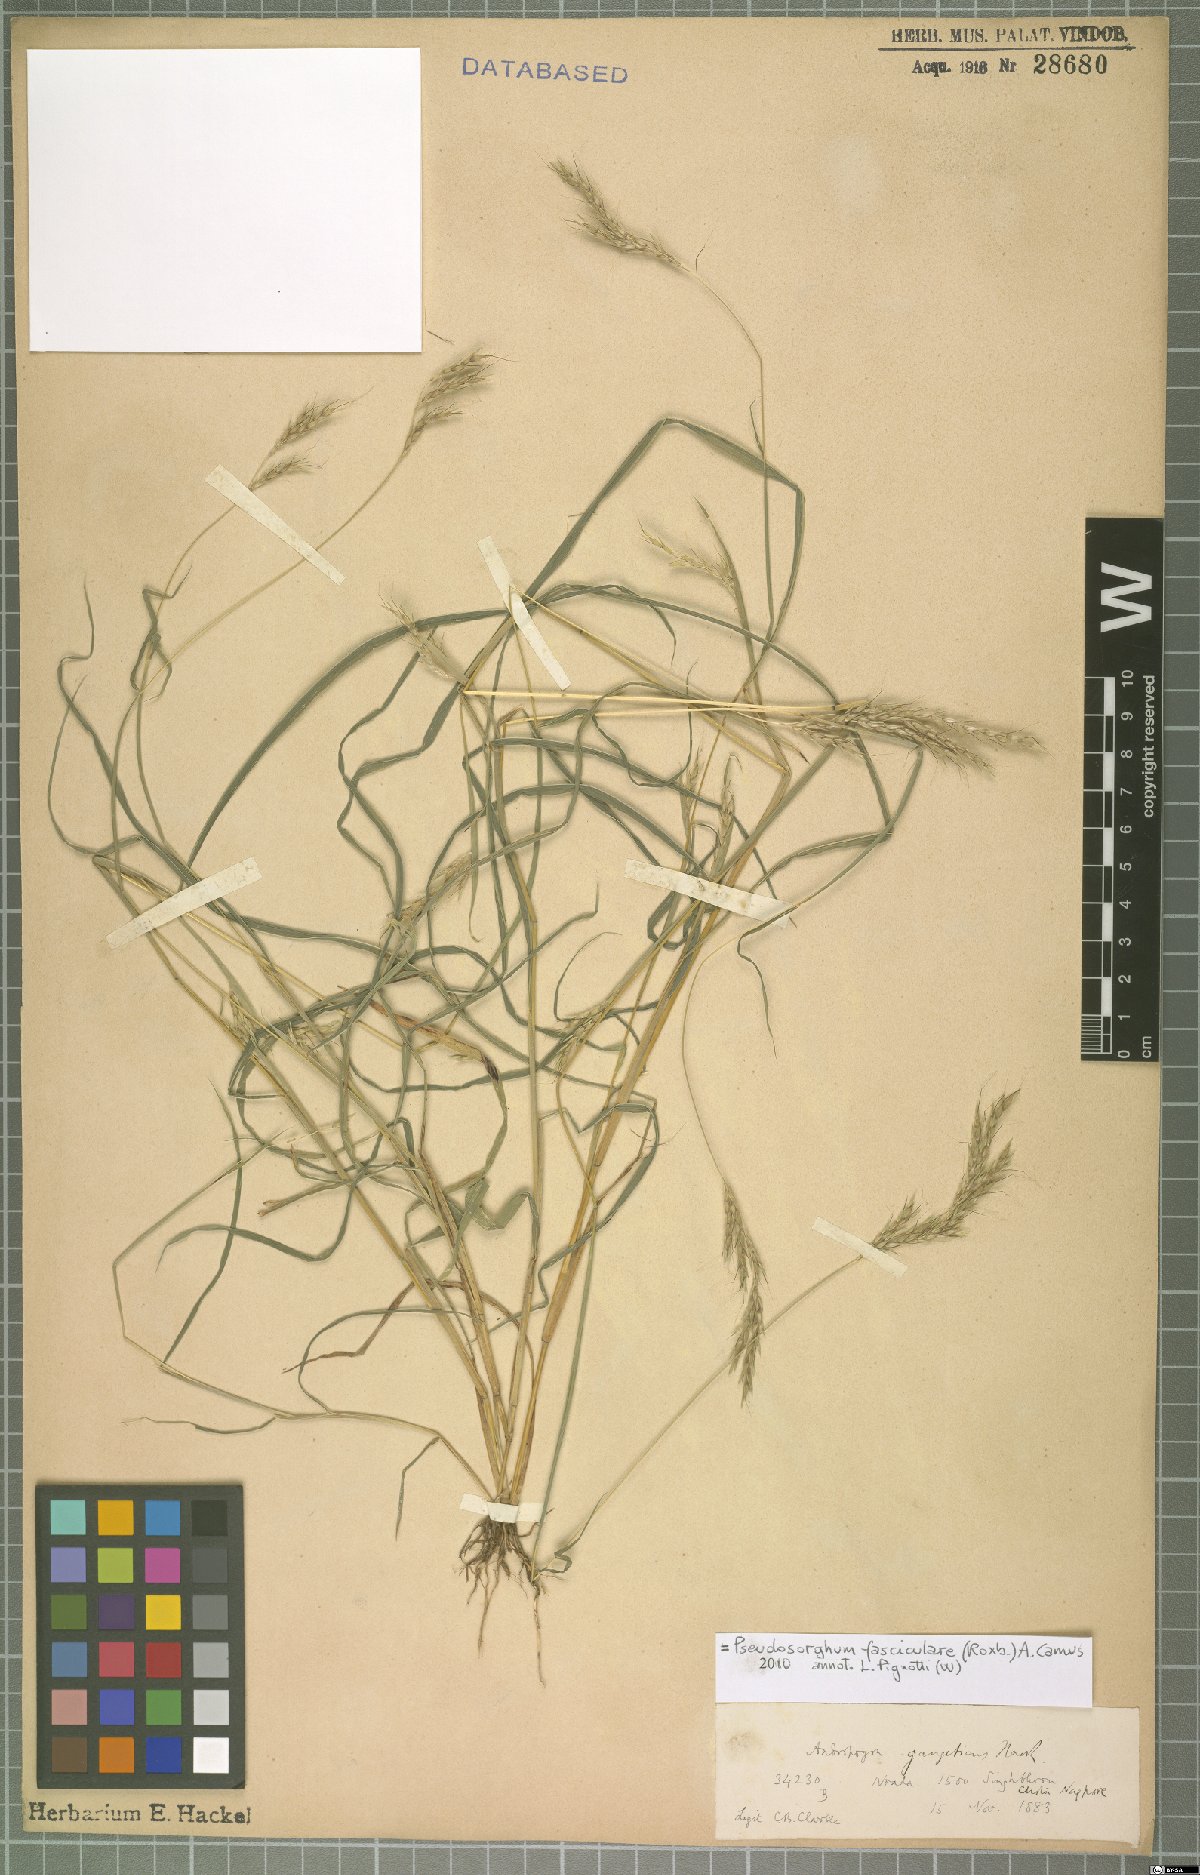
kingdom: Plantae
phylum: Tracheophyta
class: Liliopsida
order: Poales
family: Poaceae
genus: Pseudosorghum
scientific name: Pseudosorghum fasciculare
